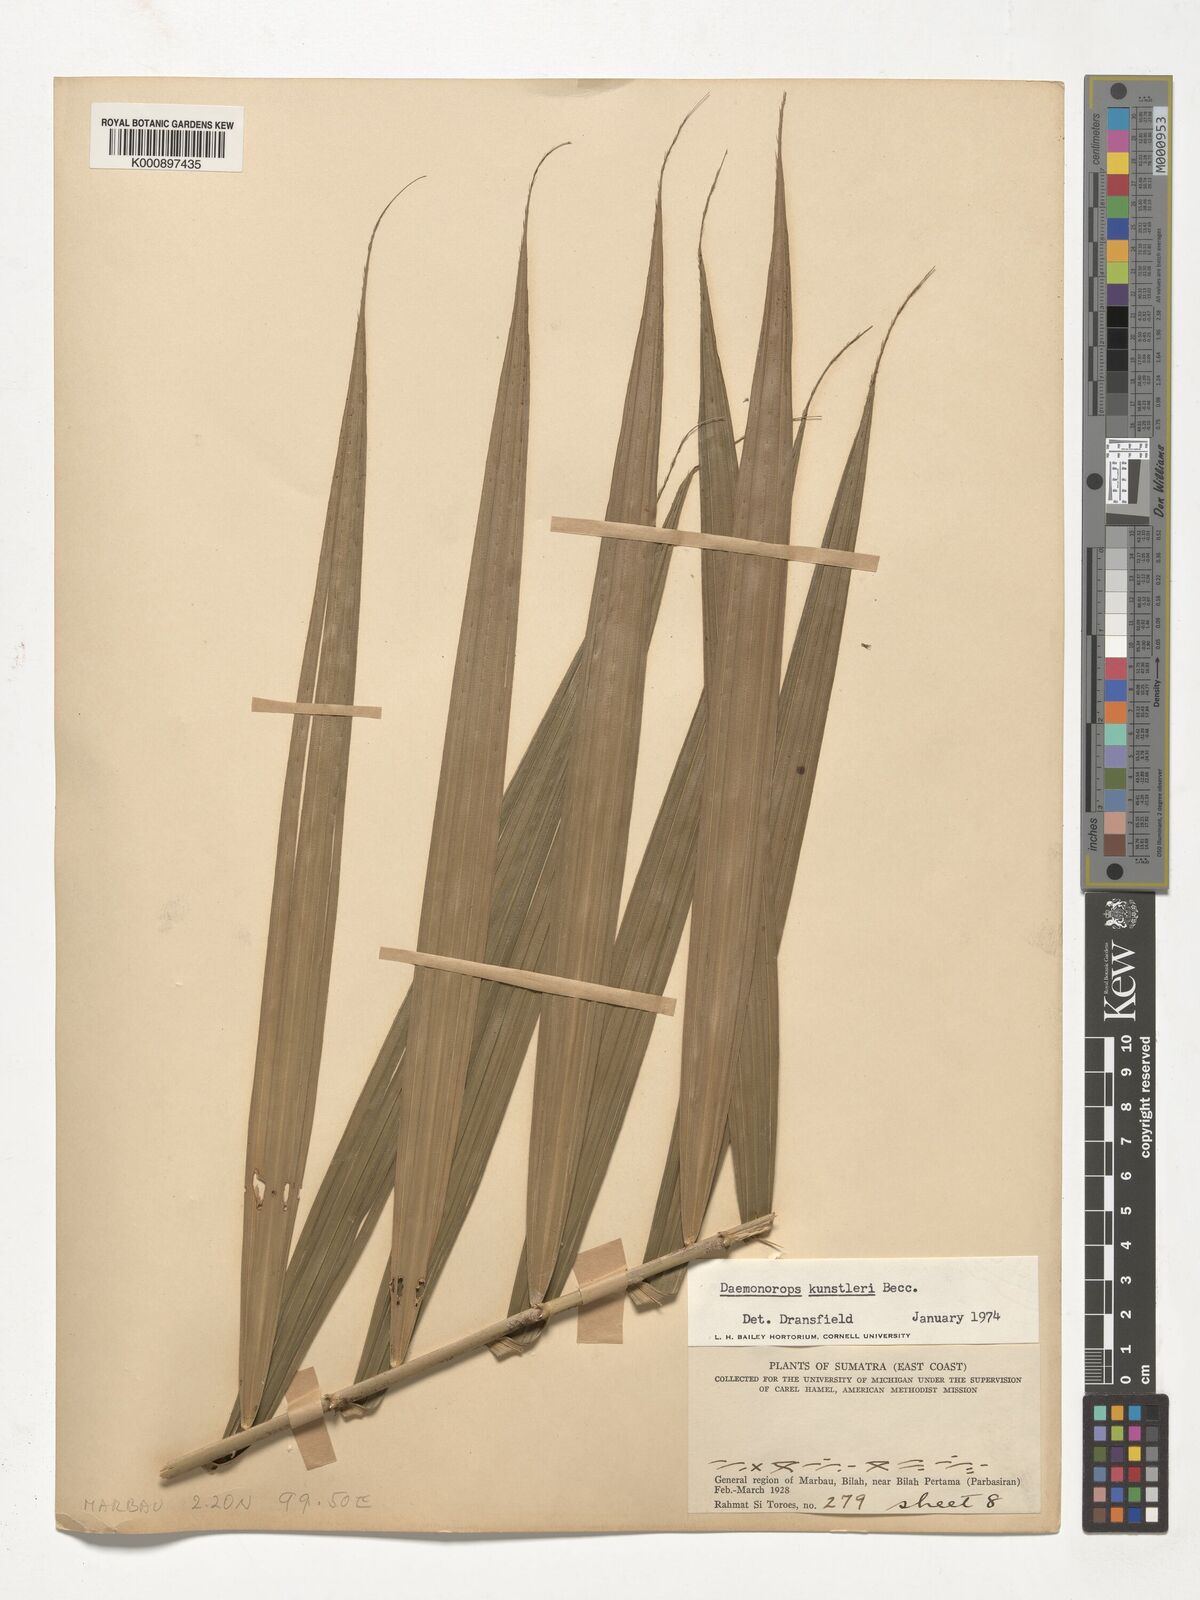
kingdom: Plantae
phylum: Tracheophyta
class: Liliopsida
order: Arecales
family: Arecaceae
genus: Calamus
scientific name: Calamus kunstleri
